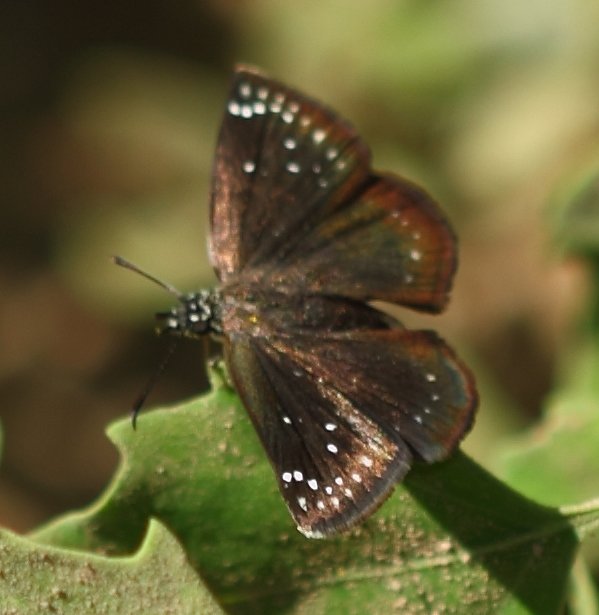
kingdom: Animalia
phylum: Arthropoda
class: Insecta
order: Lepidoptera
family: Hesperiidae
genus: Pholisora
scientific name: Pholisora catullus
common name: Common Sootywing
